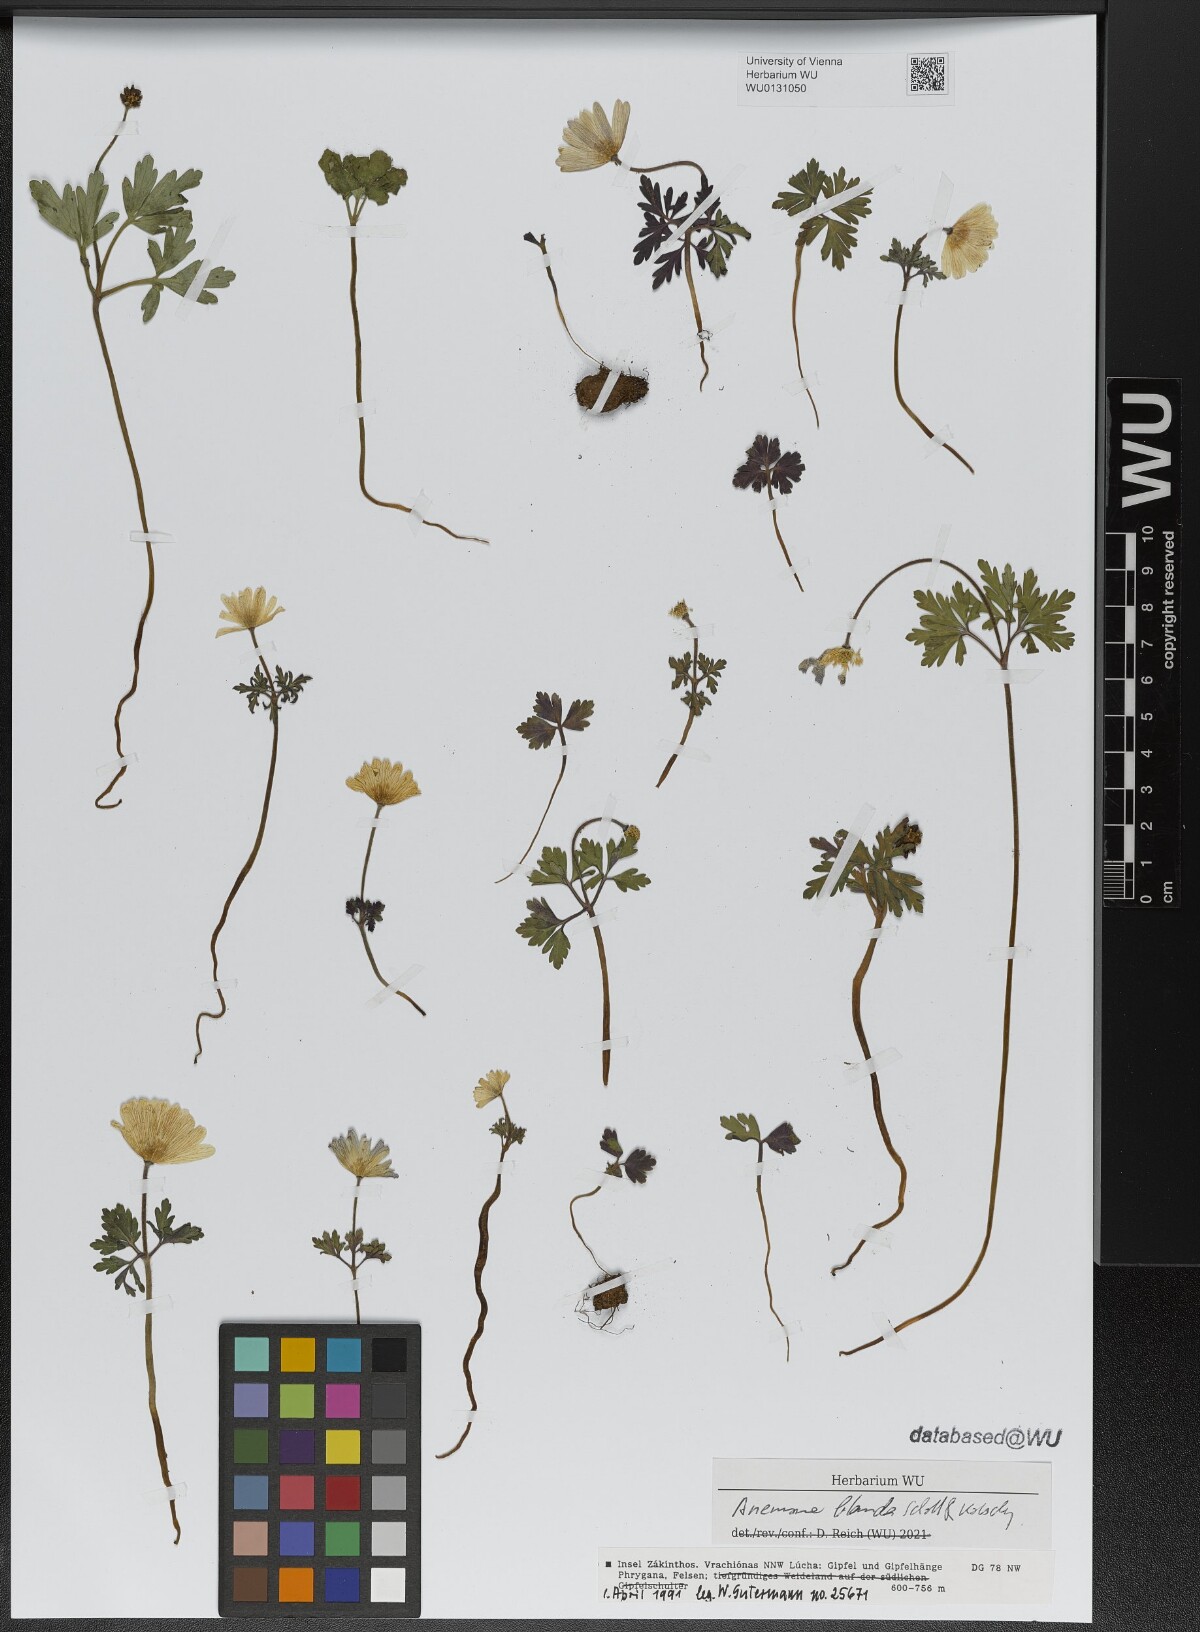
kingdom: Plantae
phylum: Tracheophyta
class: Magnoliopsida
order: Ranunculales
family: Ranunculaceae
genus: Anemone
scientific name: Anemone blanda
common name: Balkan anemone
